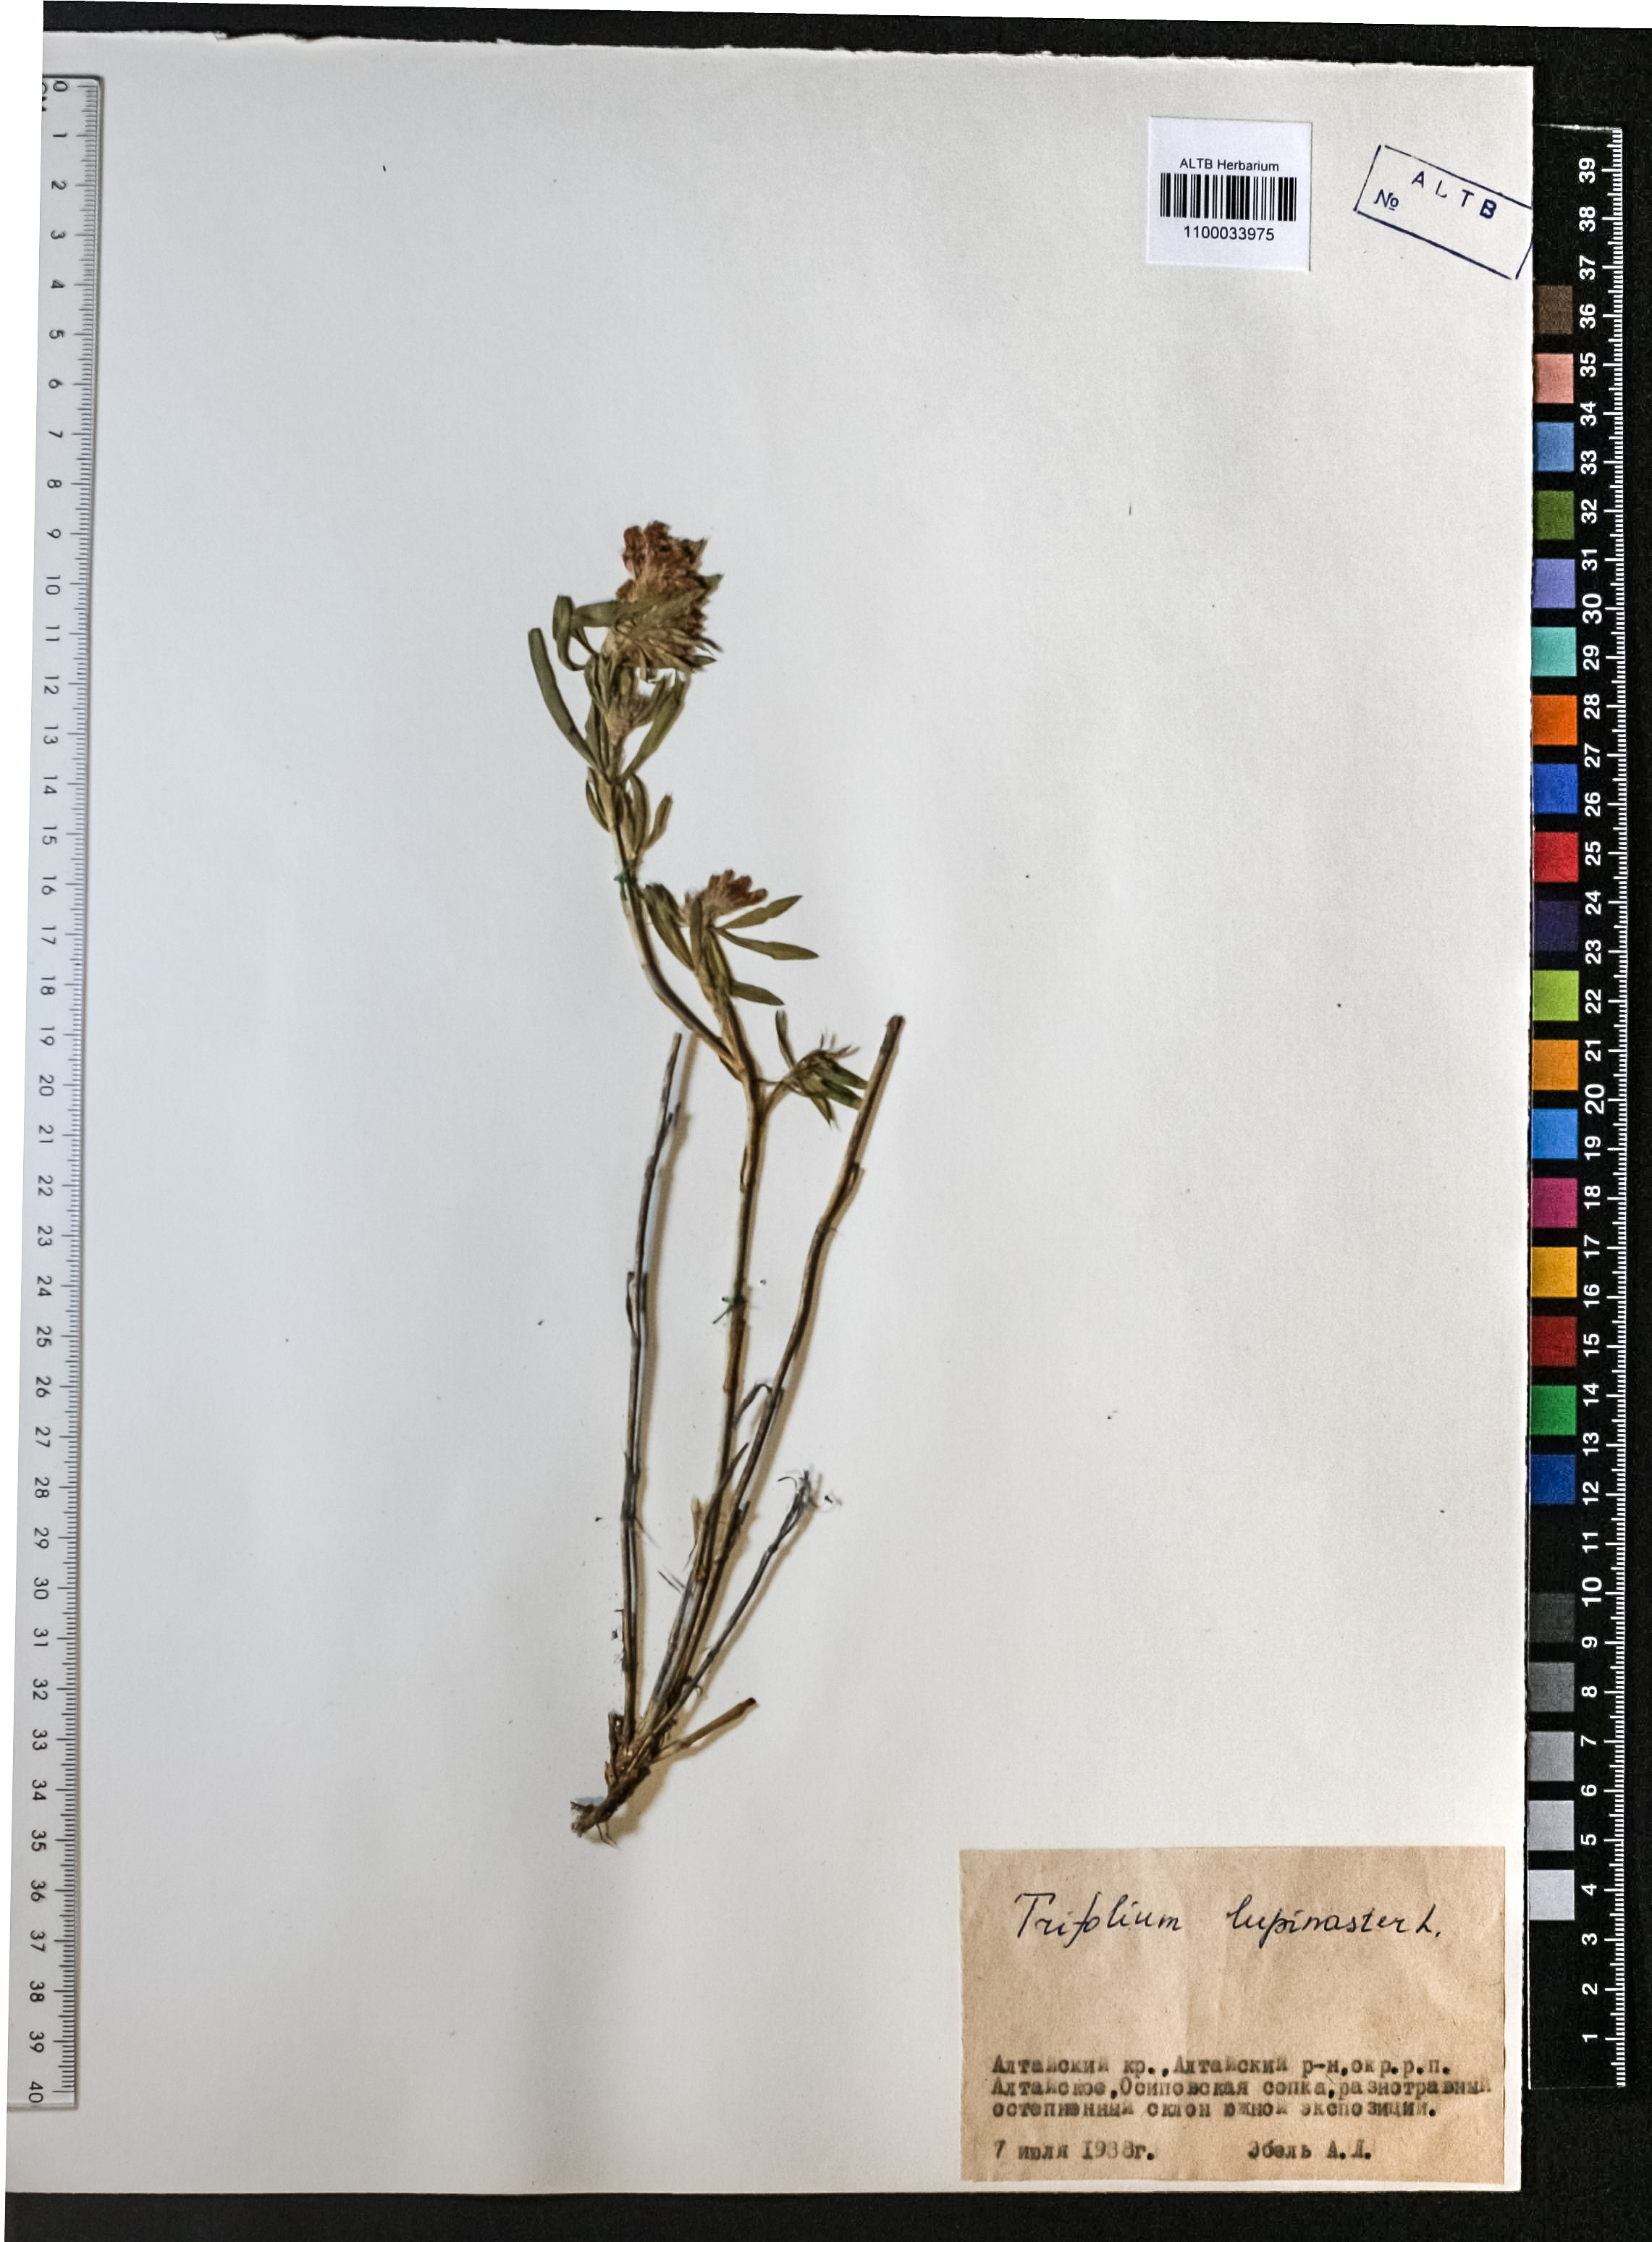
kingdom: Plantae
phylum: Tracheophyta
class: Magnoliopsida
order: Fabales
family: Fabaceae
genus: Trifolium
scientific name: Trifolium lupinaster
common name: Lupine clover
